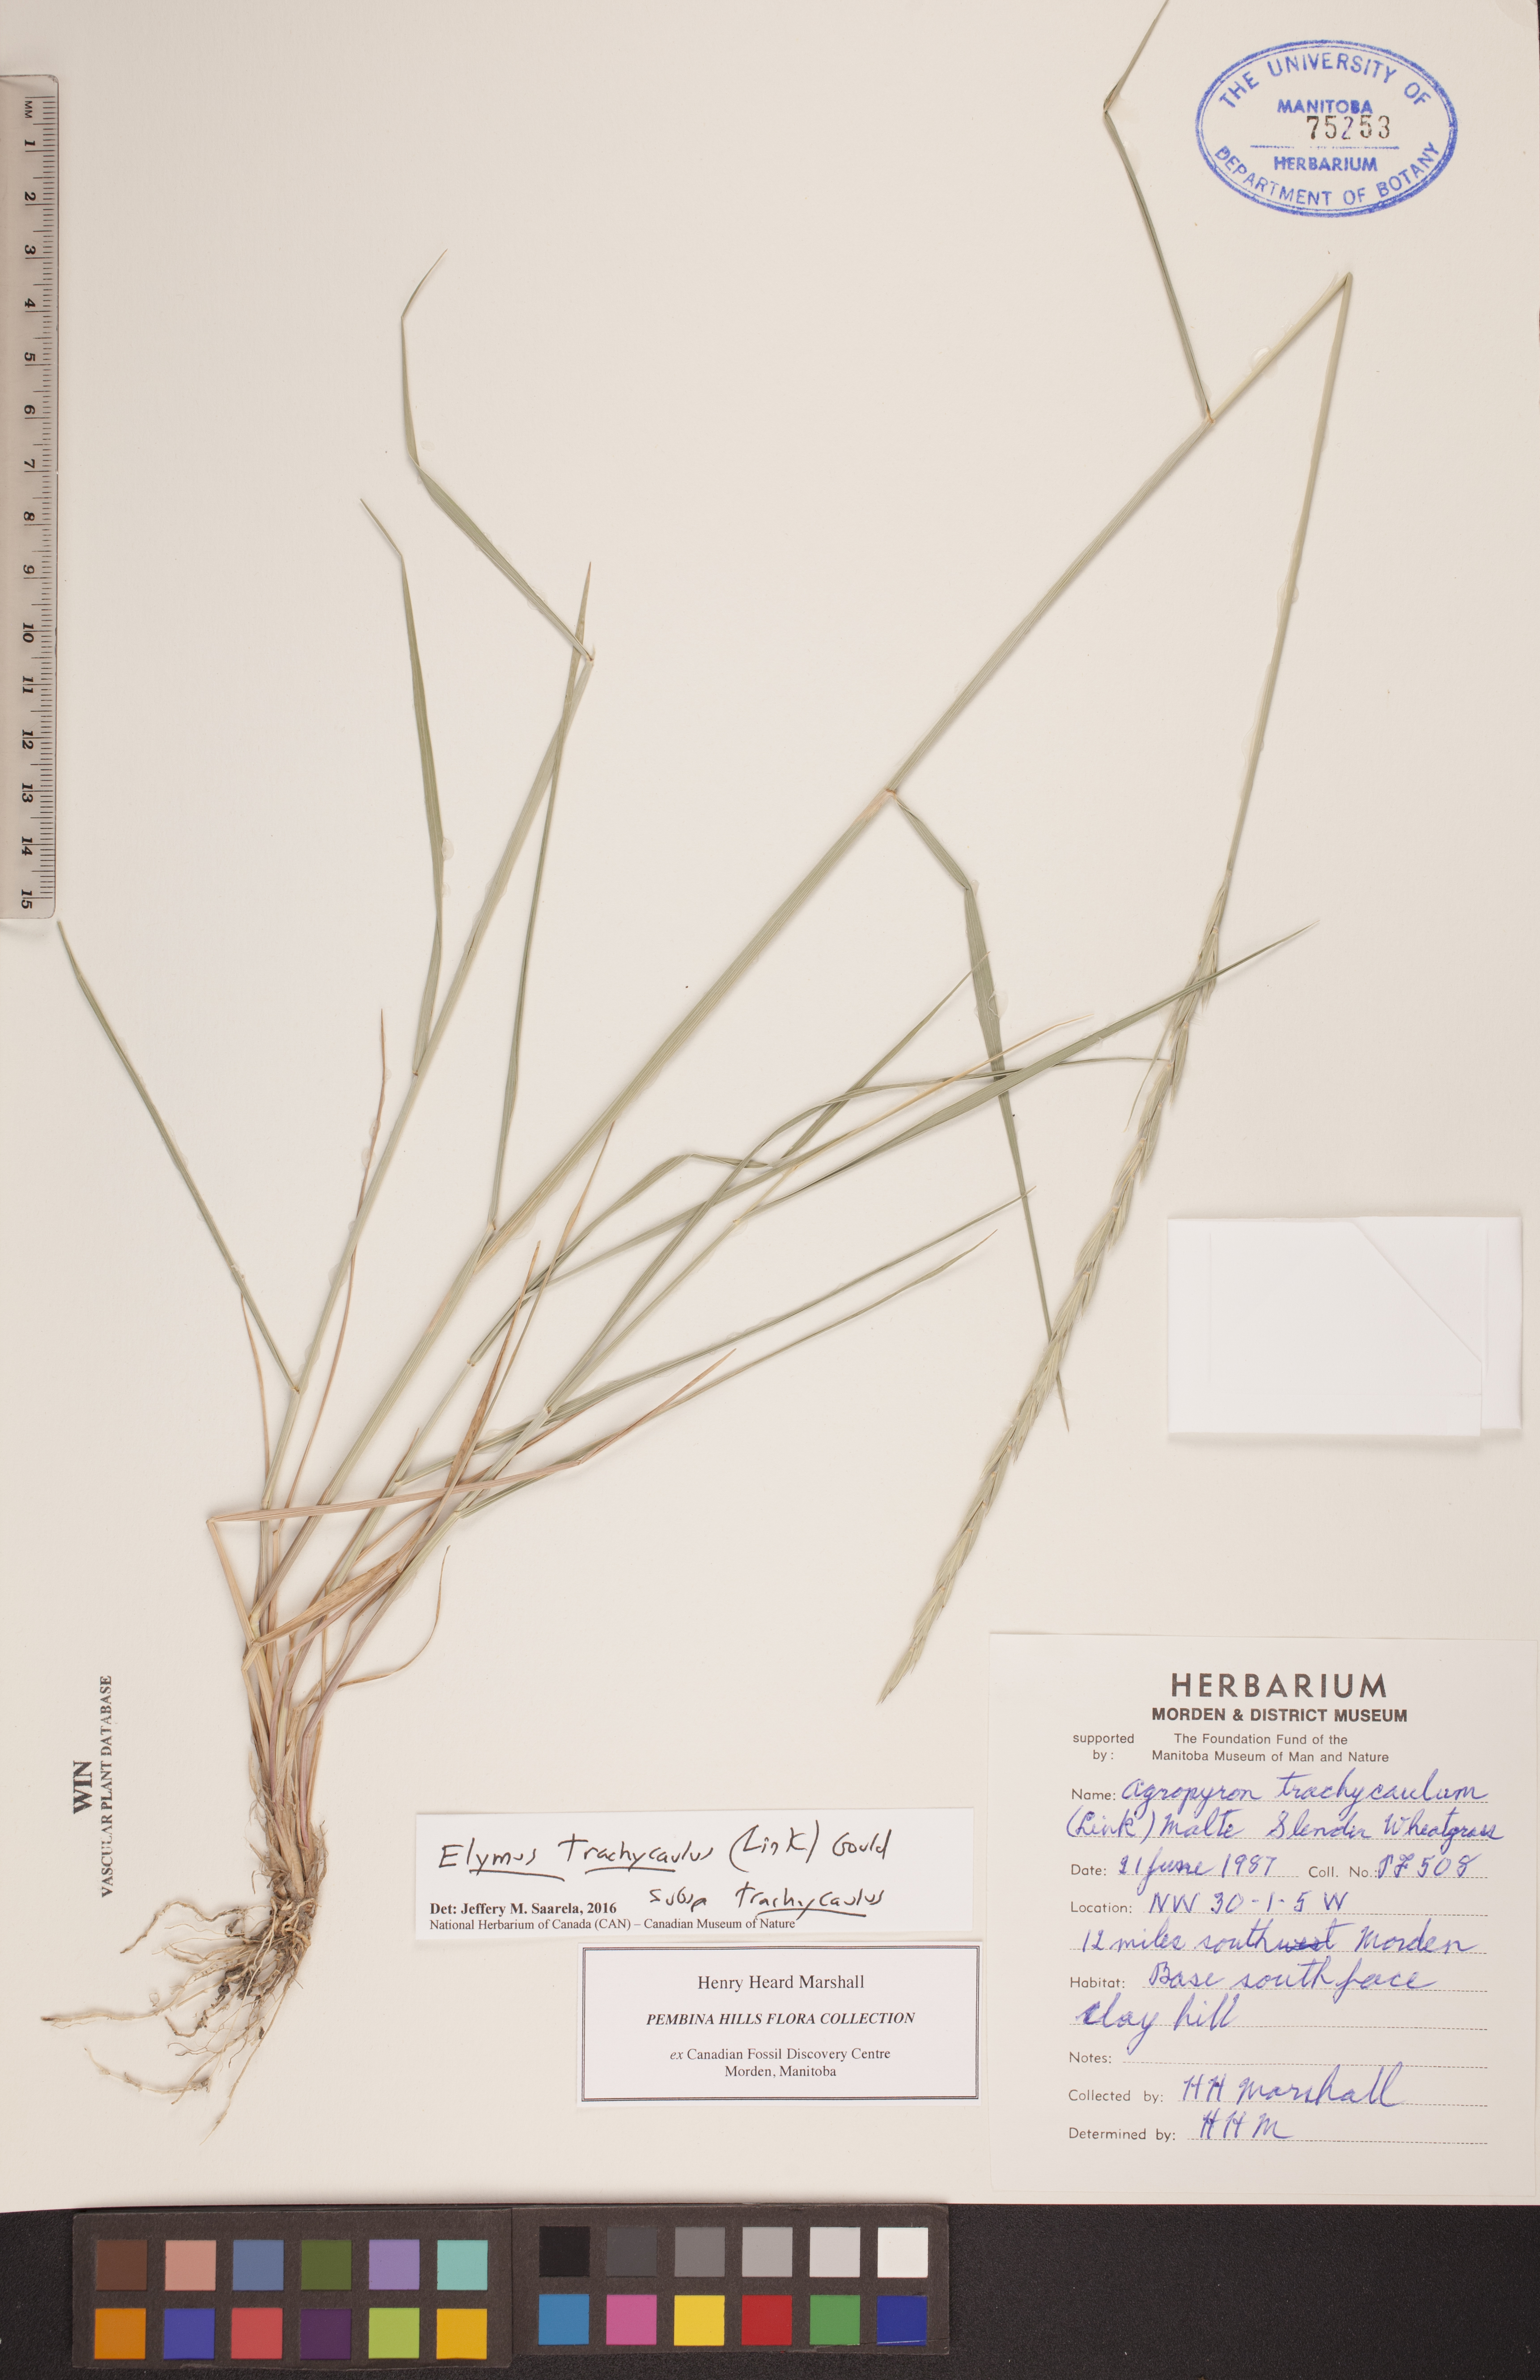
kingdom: Plantae
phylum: Tracheophyta
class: Liliopsida
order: Poales
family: Poaceae
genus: Elymus
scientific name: Elymus violaceus
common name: Arctic wheatgrass
